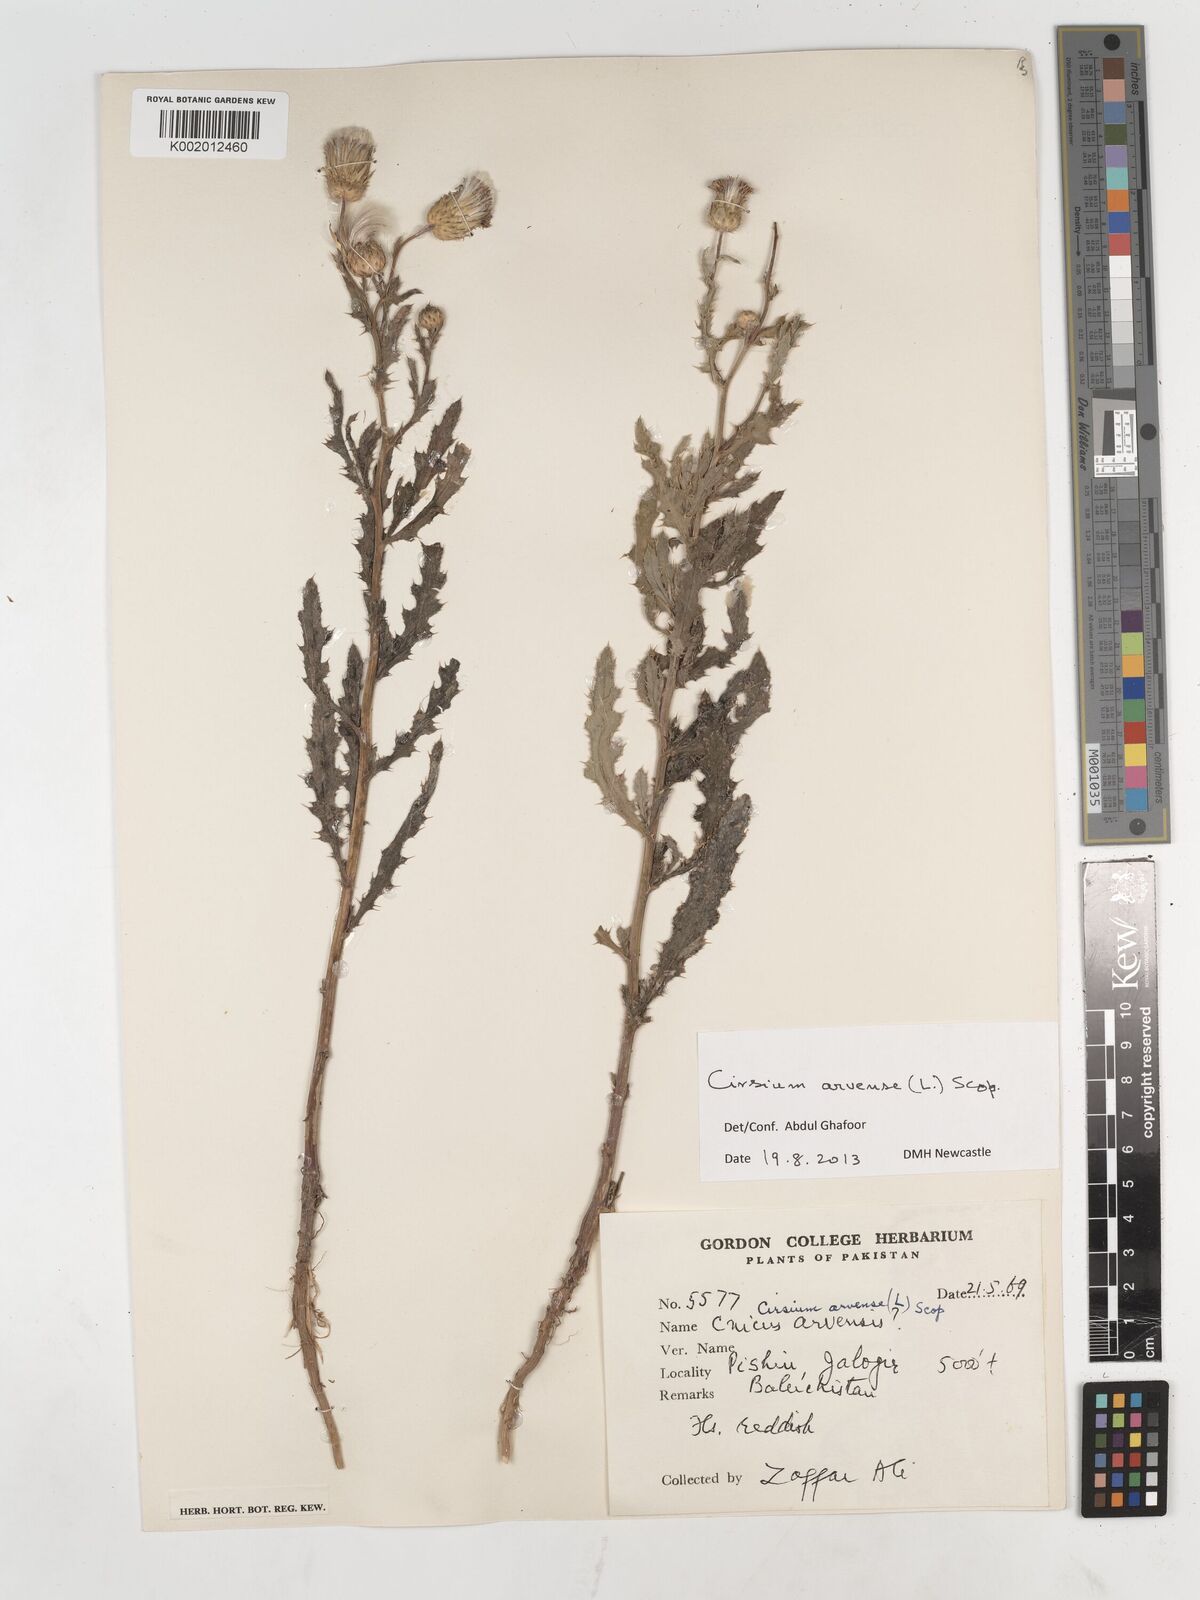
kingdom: Plantae
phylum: Tracheophyta
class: Magnoliopsida
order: Asterales
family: Asteraceae
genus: Cirsium
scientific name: Cirsium arvense
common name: Creeping thistle
